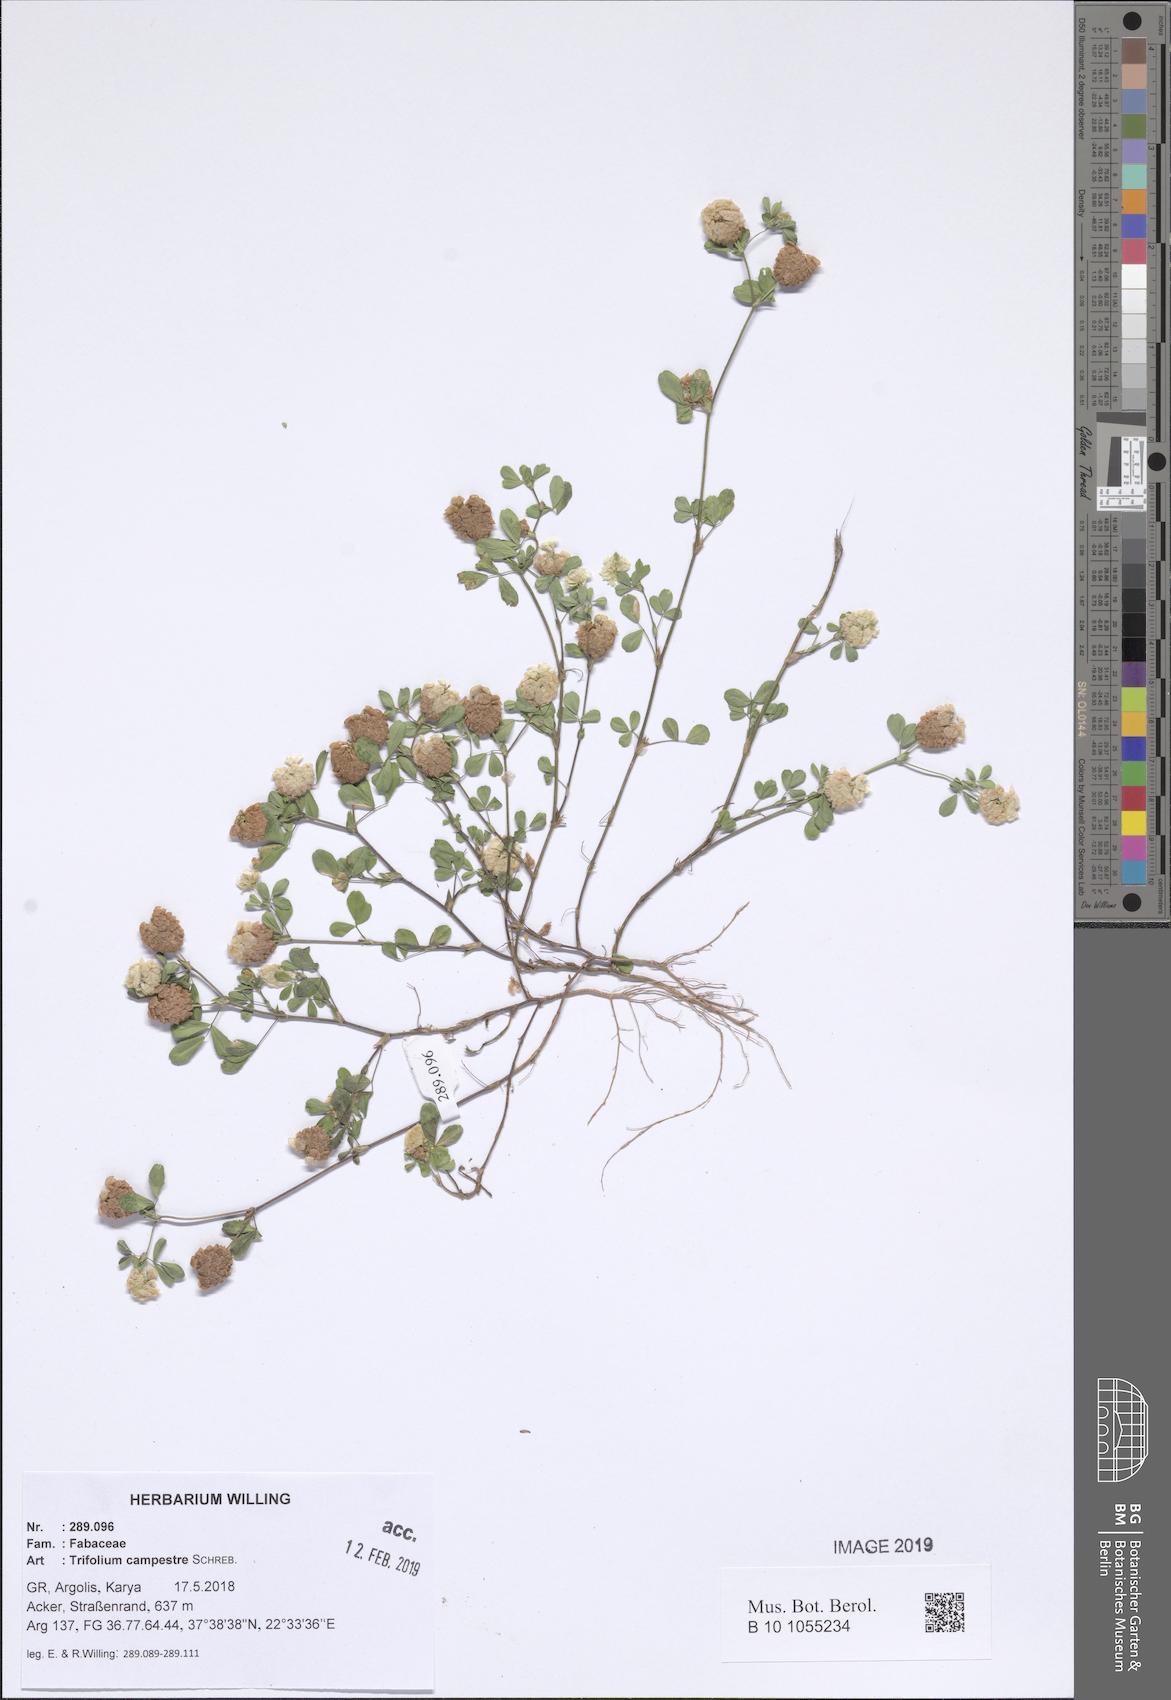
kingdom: Plantae
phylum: Tracheophyta
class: Magnoliopsida
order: Fabales
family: Fabaceae
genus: Trifolium
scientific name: Trifolium campestre
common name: Field clover
